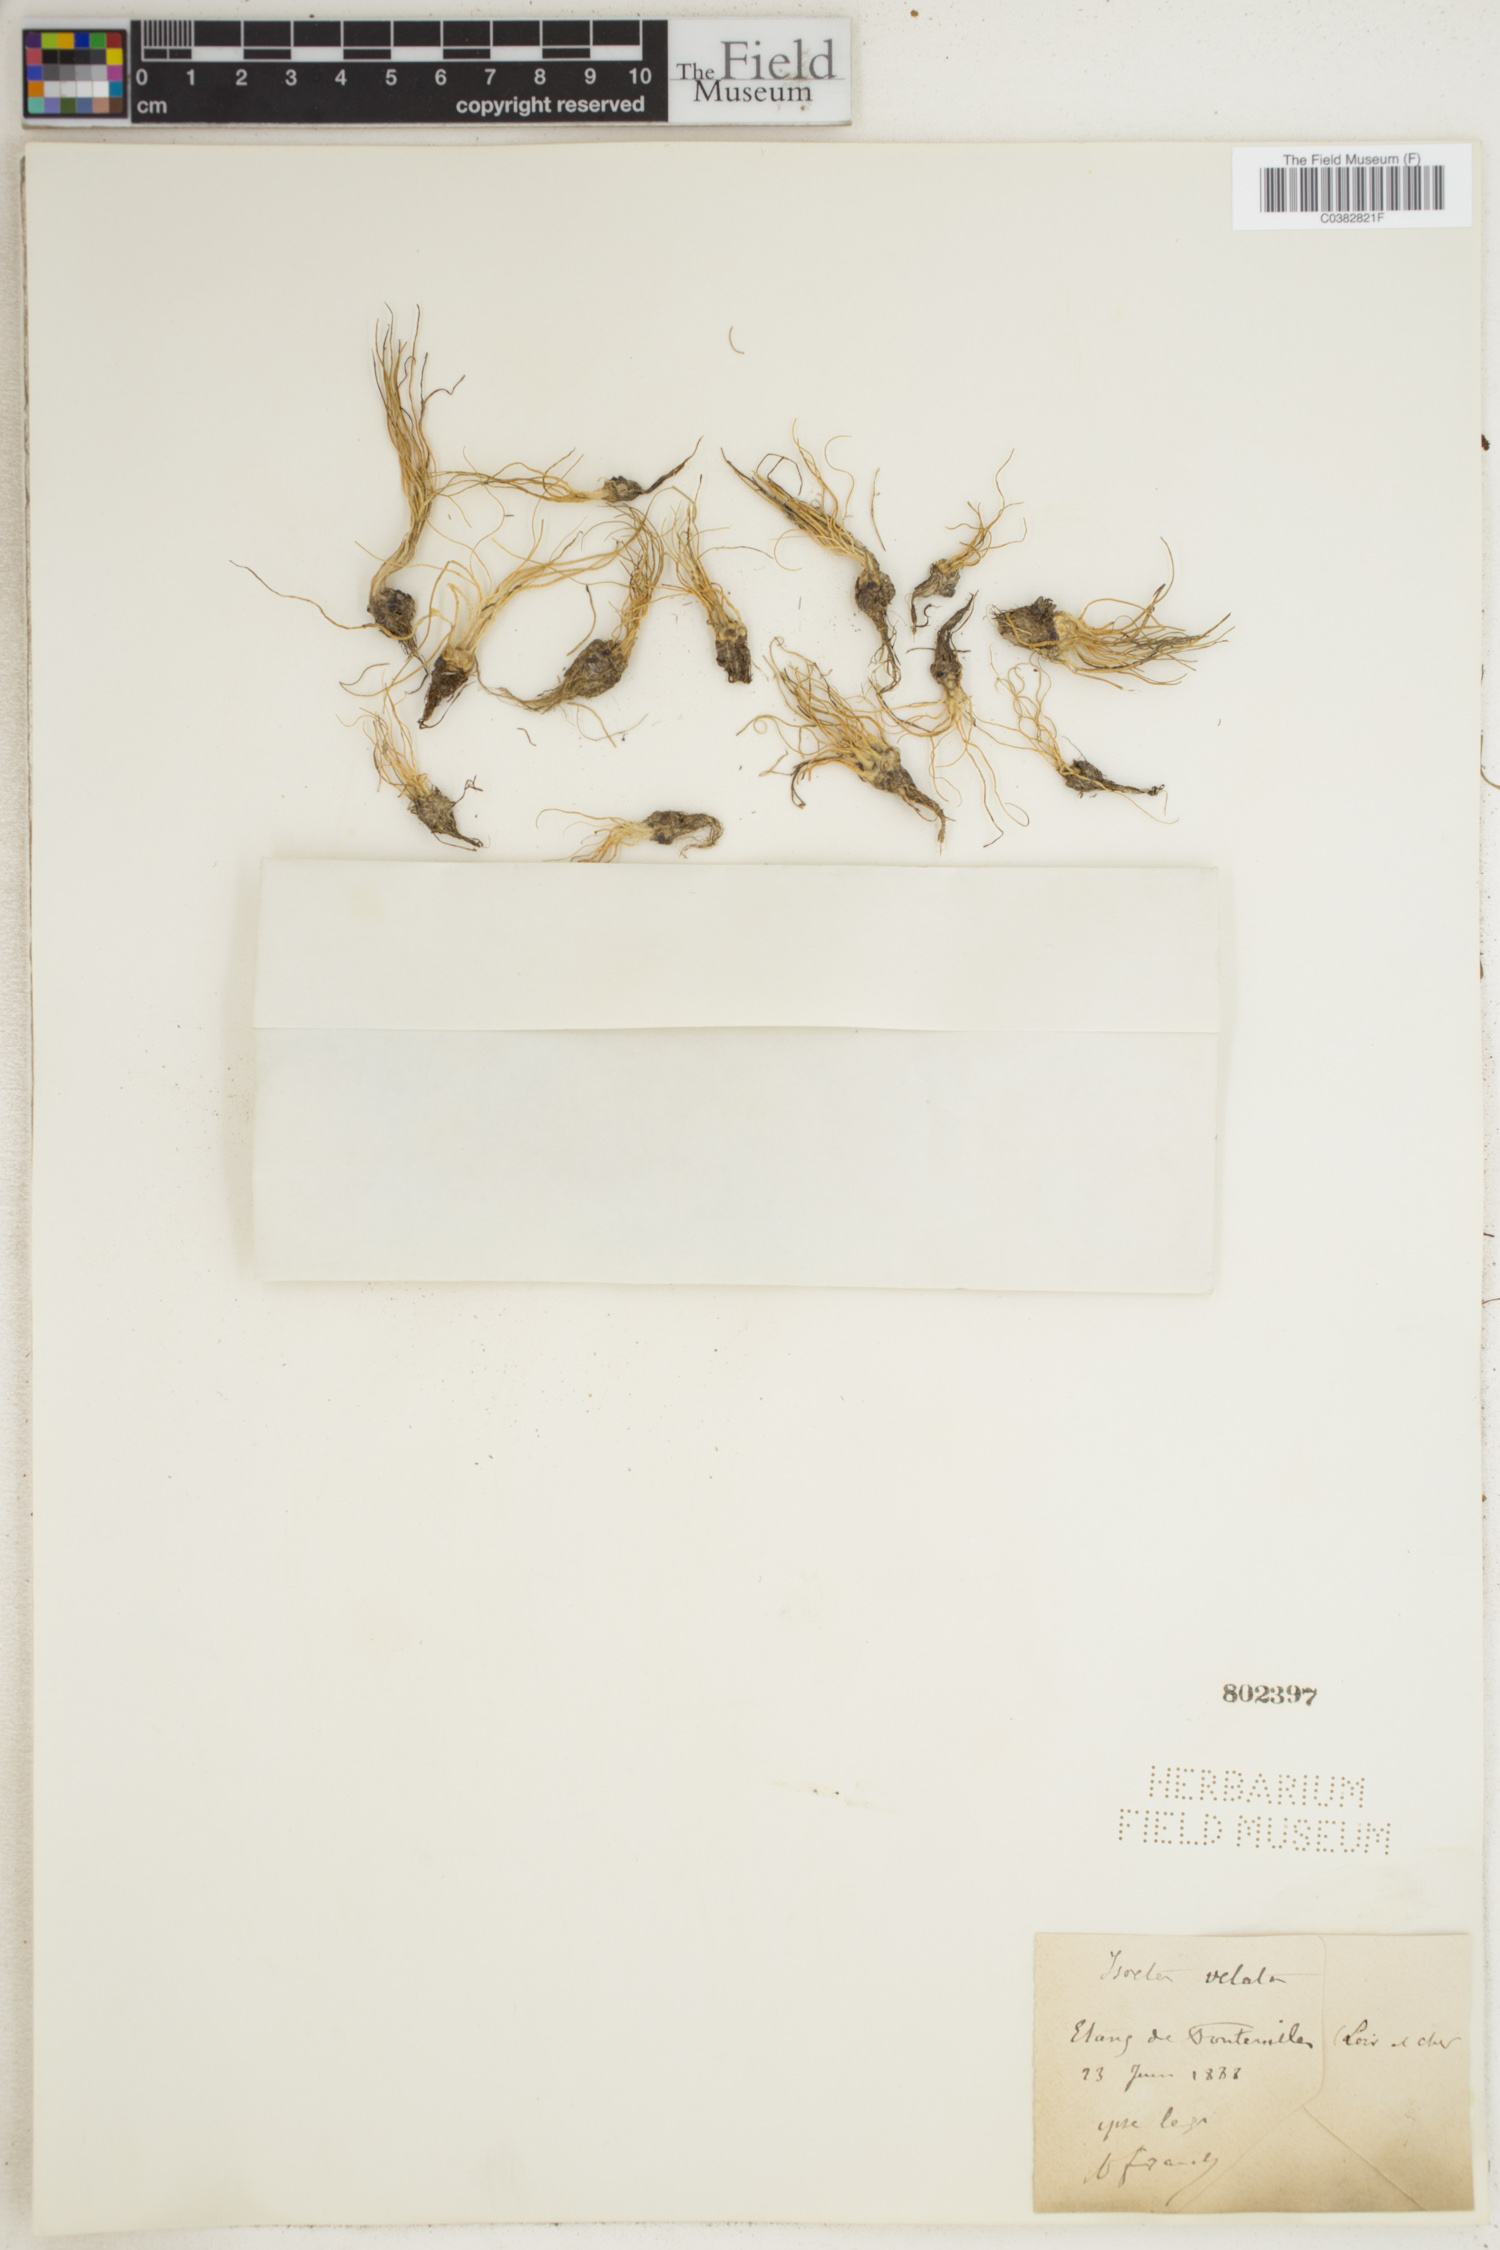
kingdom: Plantae
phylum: Tracheophyta
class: Lycopodiopsida
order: Isoetales
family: Isoetaceae
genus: Isoetes
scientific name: Isoetes longissima
